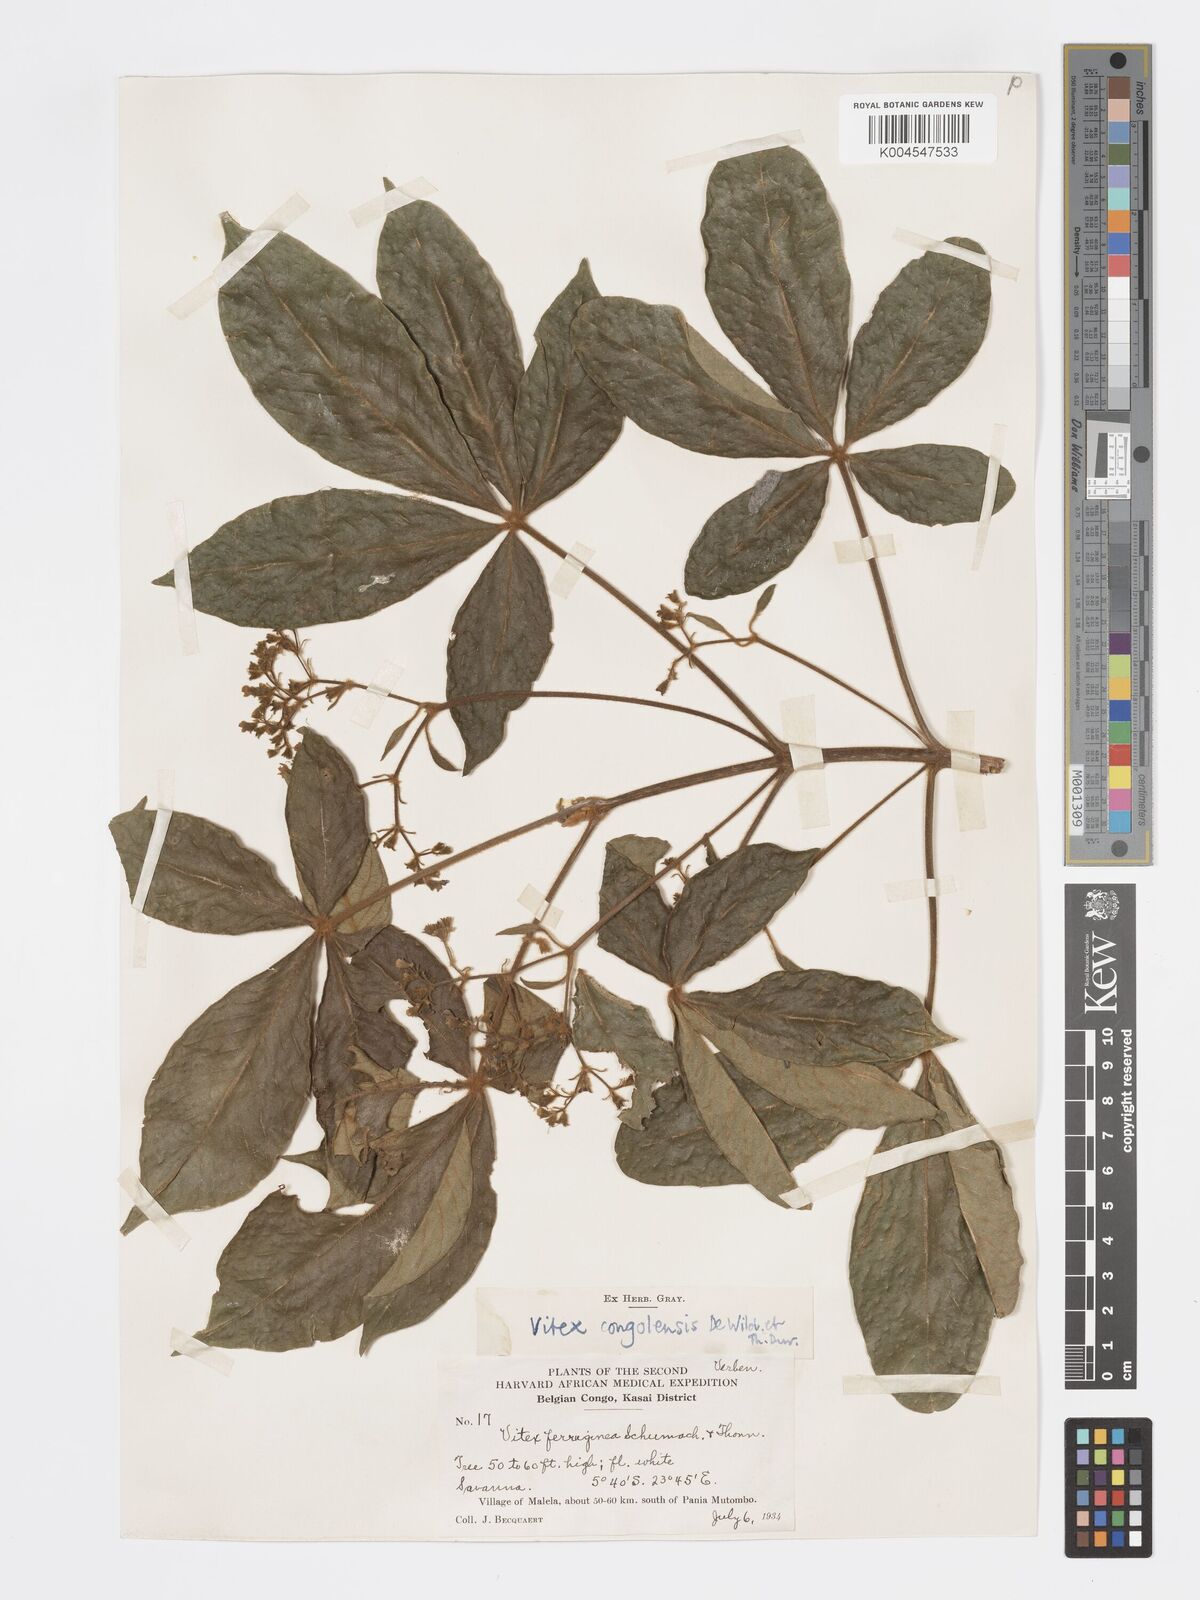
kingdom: Plantae
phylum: Tracheophyta
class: Magnoliopsida
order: Lamiales
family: Lamiaceae
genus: Vitex
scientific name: Vitex congolensis
